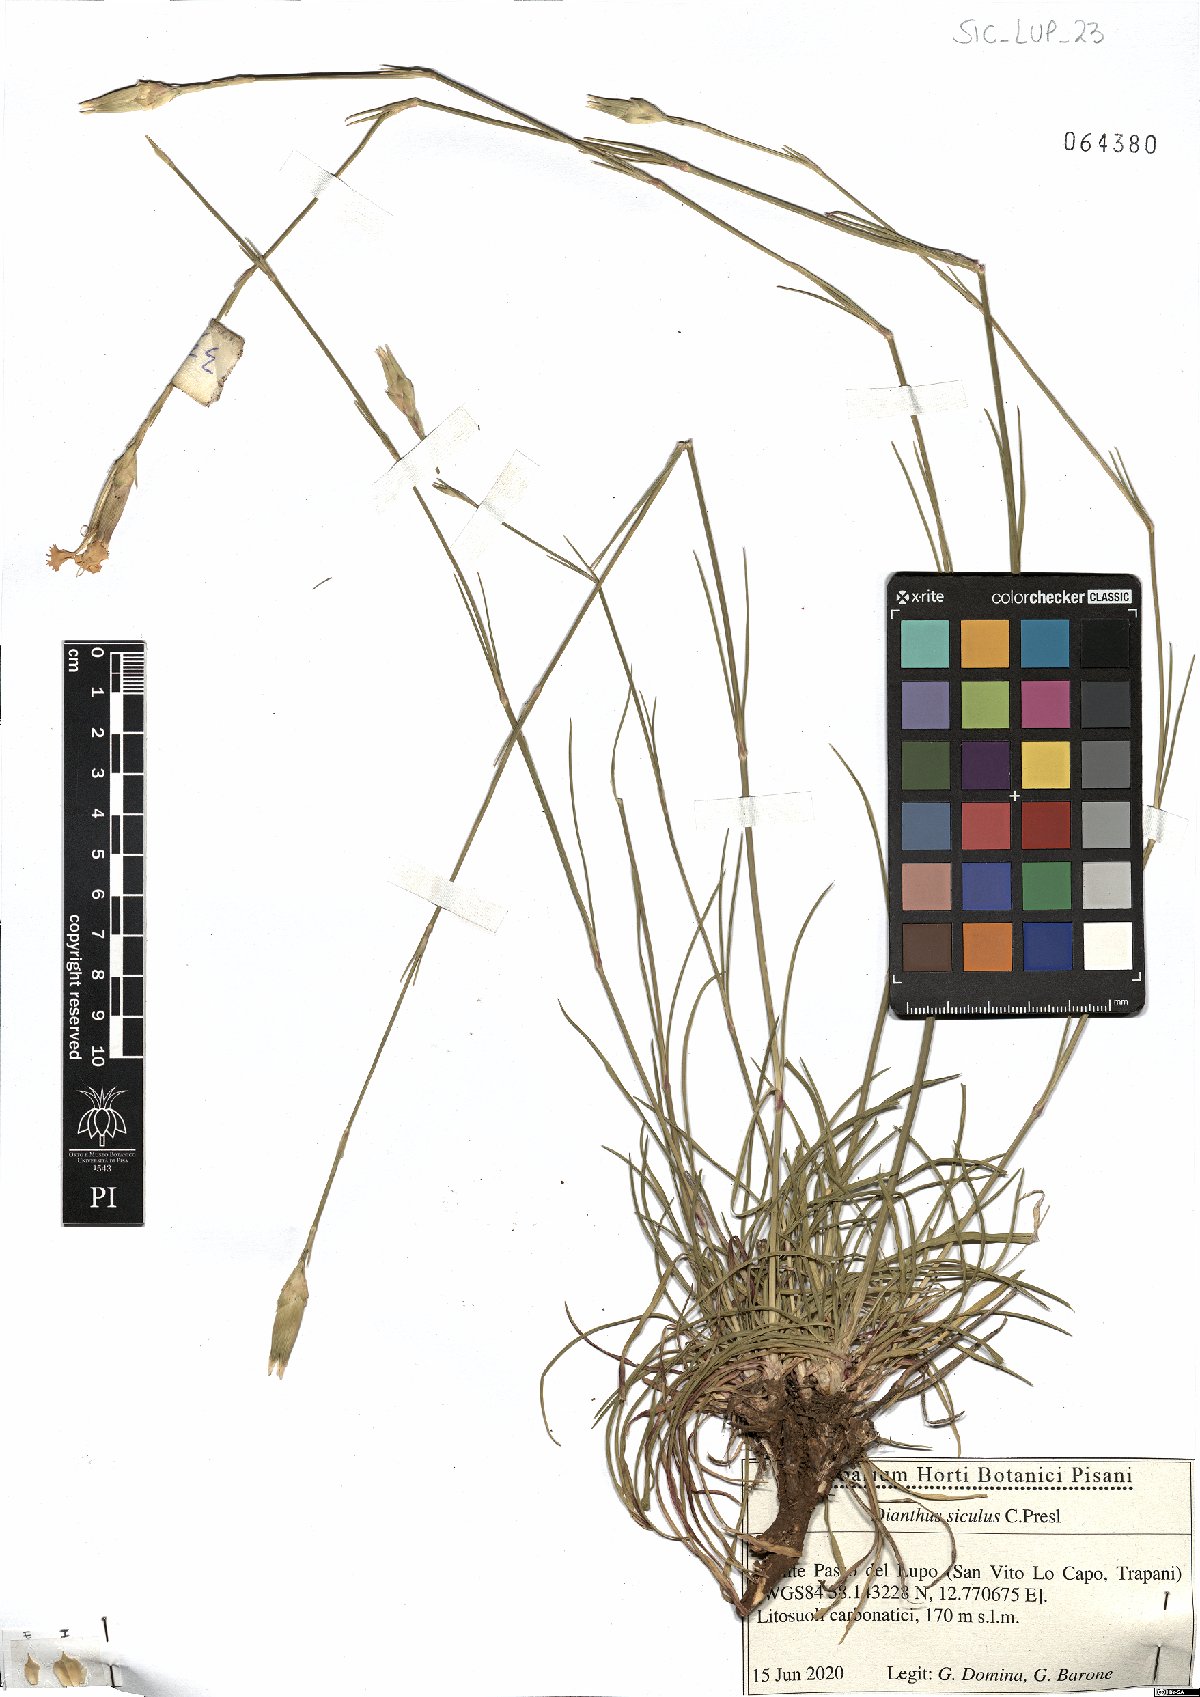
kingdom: Plantae
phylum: Tracheophyta
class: Magnoliopsida
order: Caryophyllales
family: Caryophyllaceae
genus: Dianthus
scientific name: Dianthus siculus
